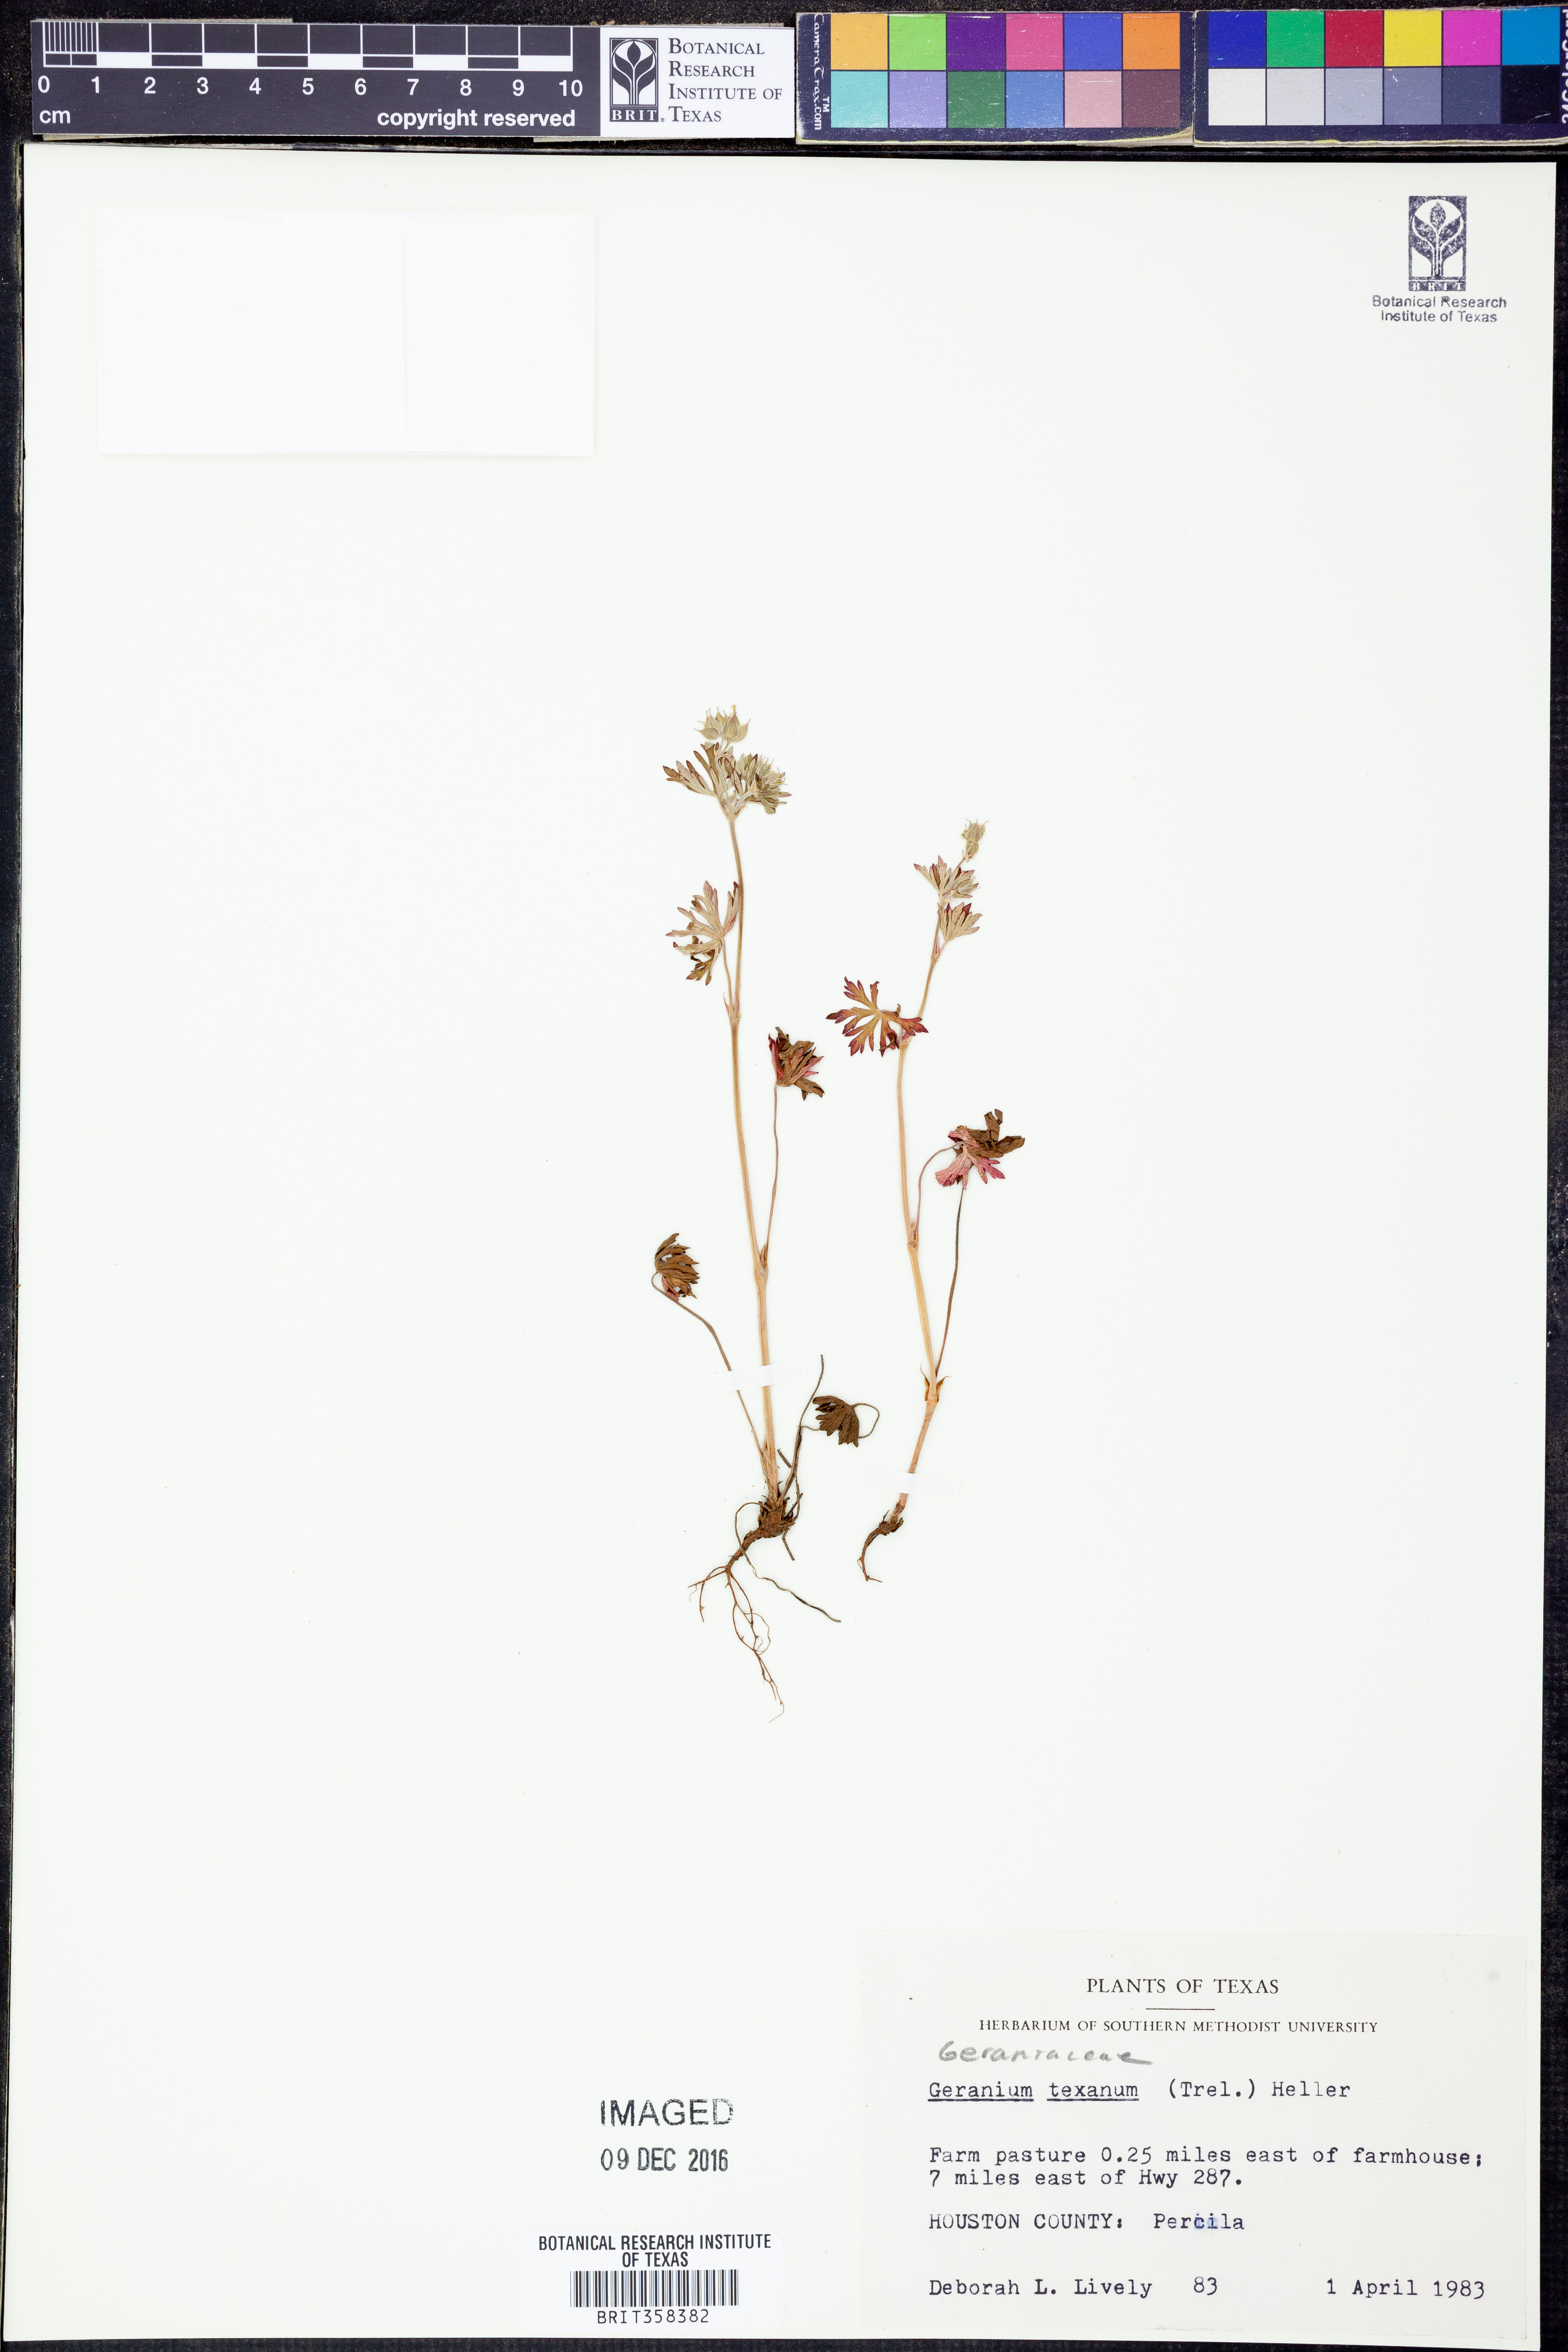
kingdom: Plantae
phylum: Tracheophyta
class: Magnoliopsida
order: Geraniales
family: Geraniaceae
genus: Geranium
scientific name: Geranium texanum
